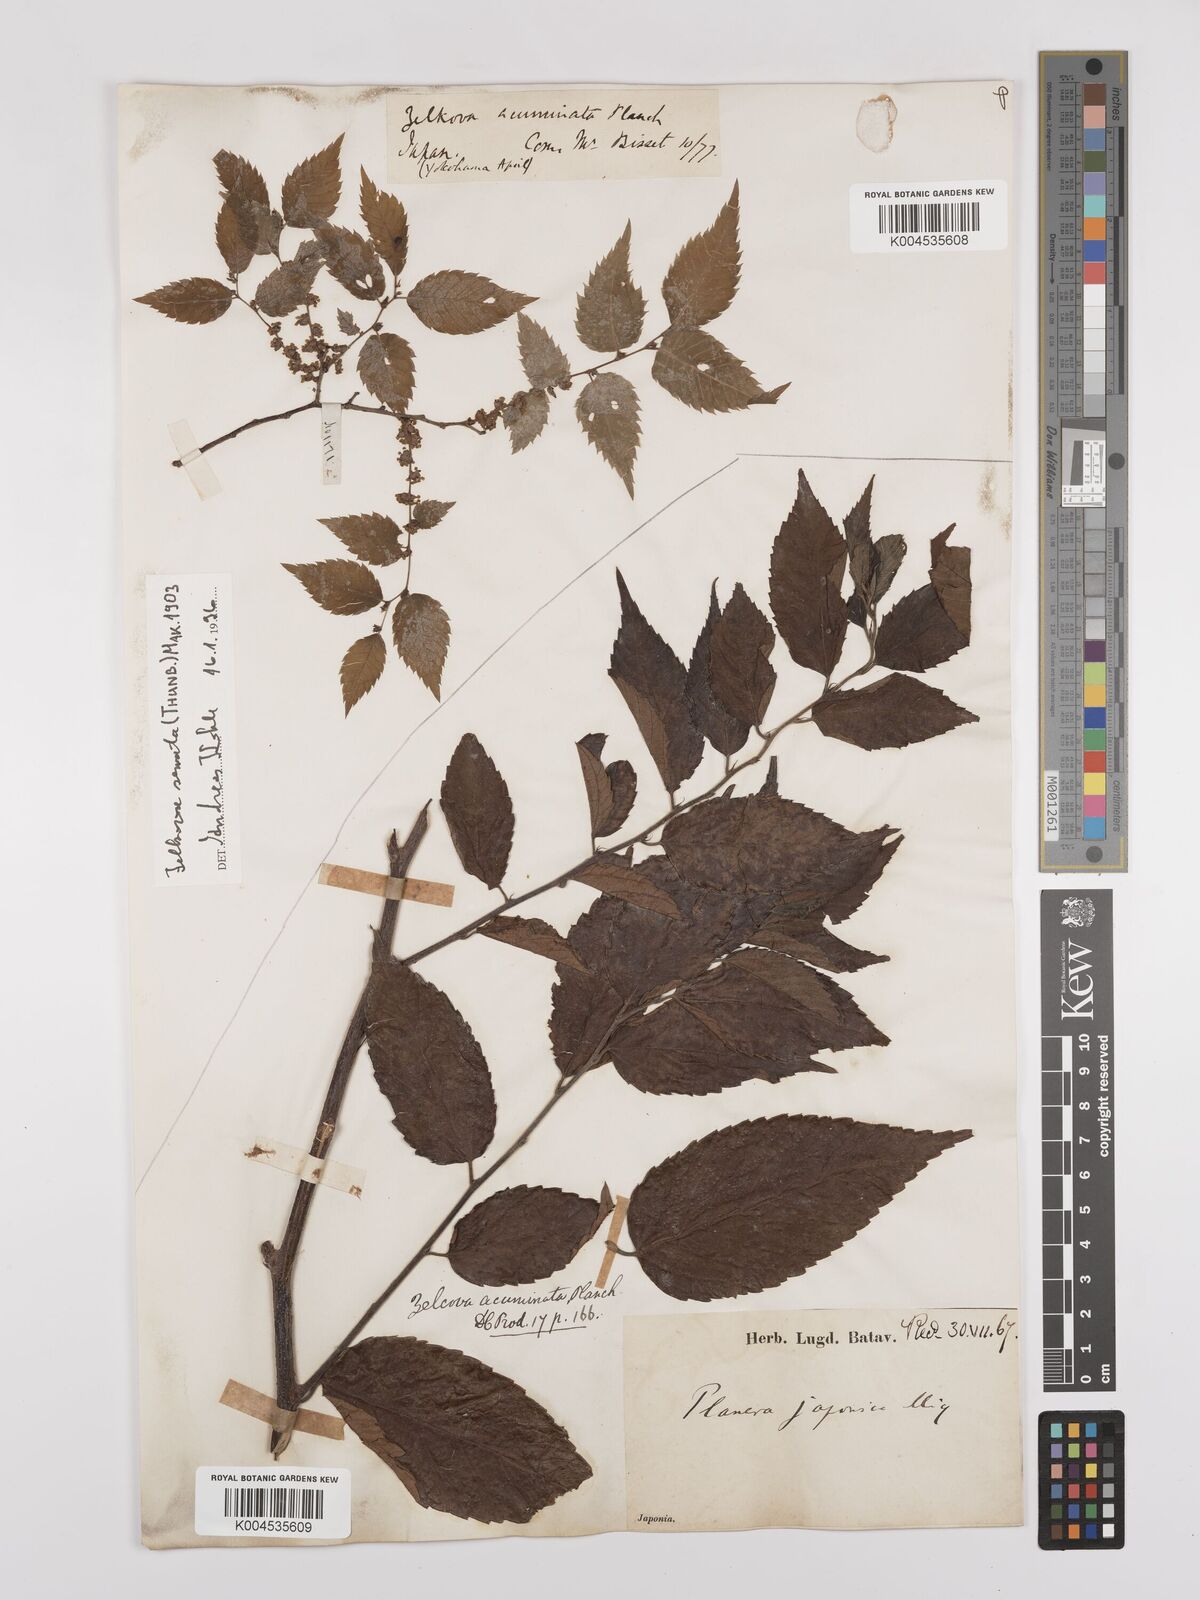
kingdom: Plantae
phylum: Tracheophyta
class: Magnoliopsida
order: Rosales
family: Ulmaceae
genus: Zelkova
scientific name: Zelkova serrata
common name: Japanese zelkova
